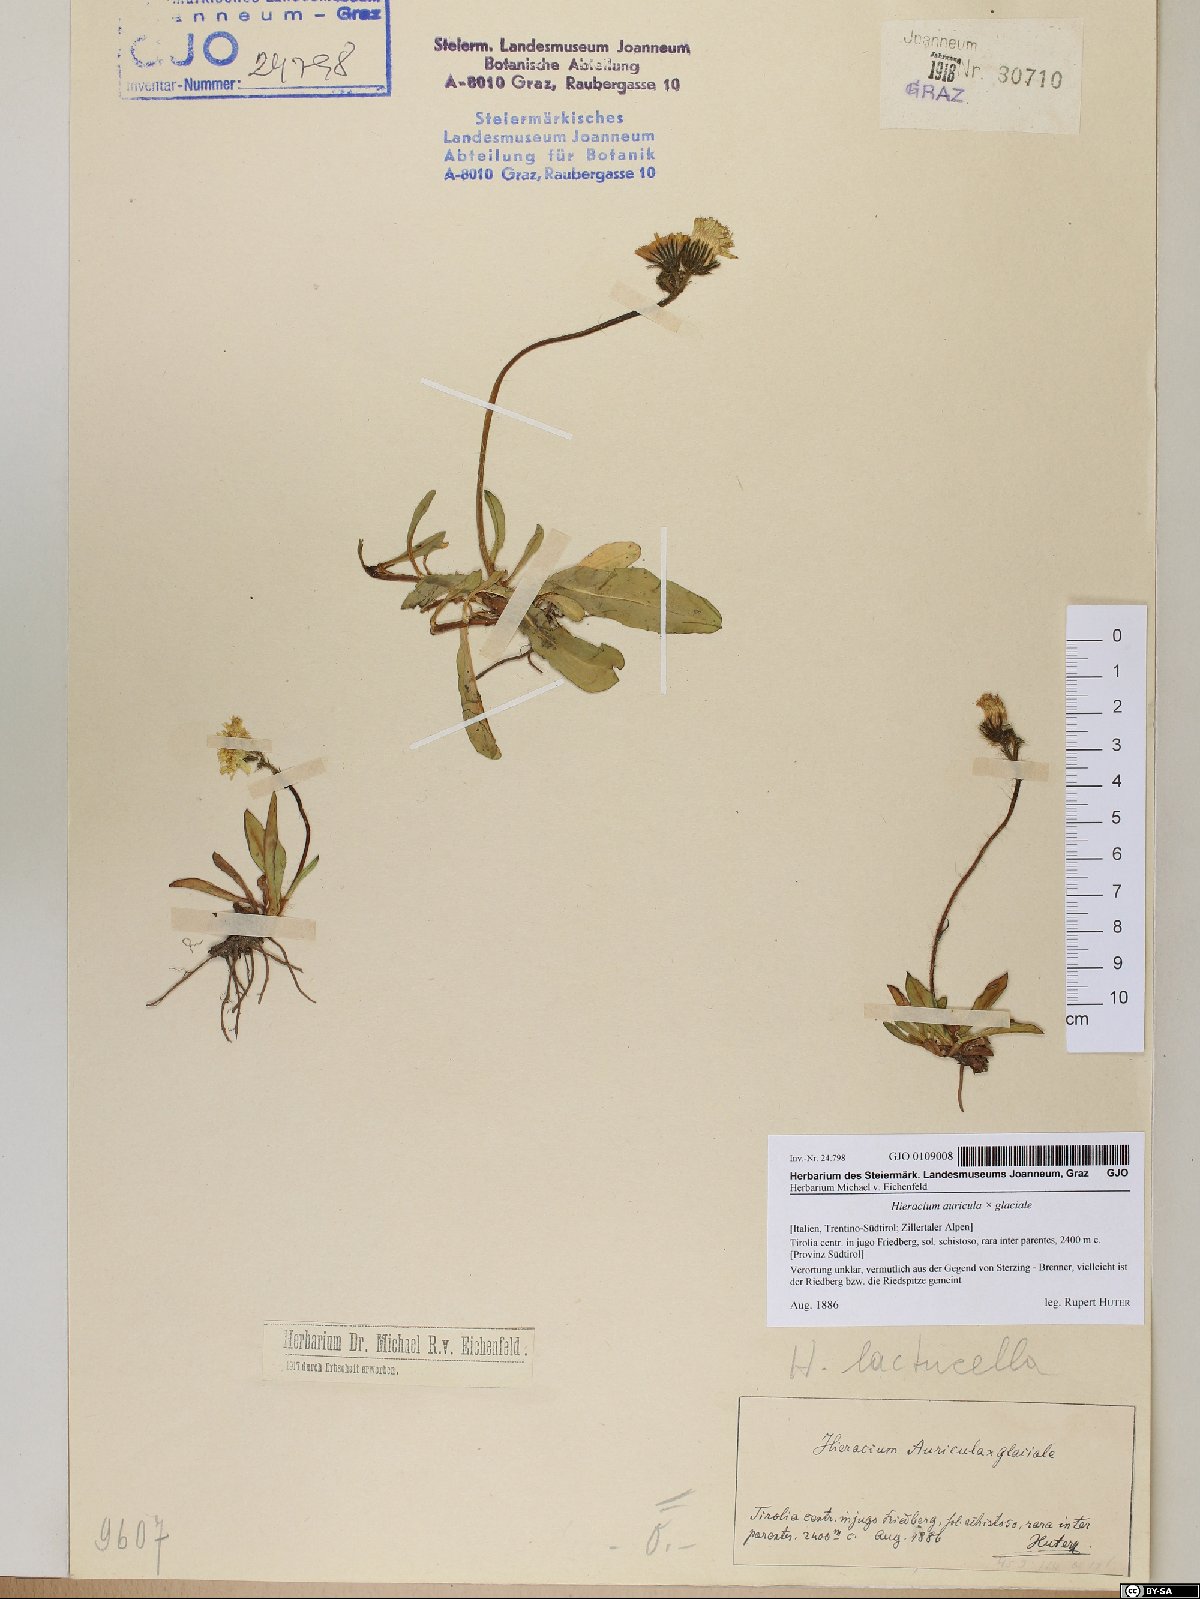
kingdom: Plantae
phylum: Tracheophyta
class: Magnoliopsida
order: Asterales
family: Asteraceae
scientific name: Asteraceae
